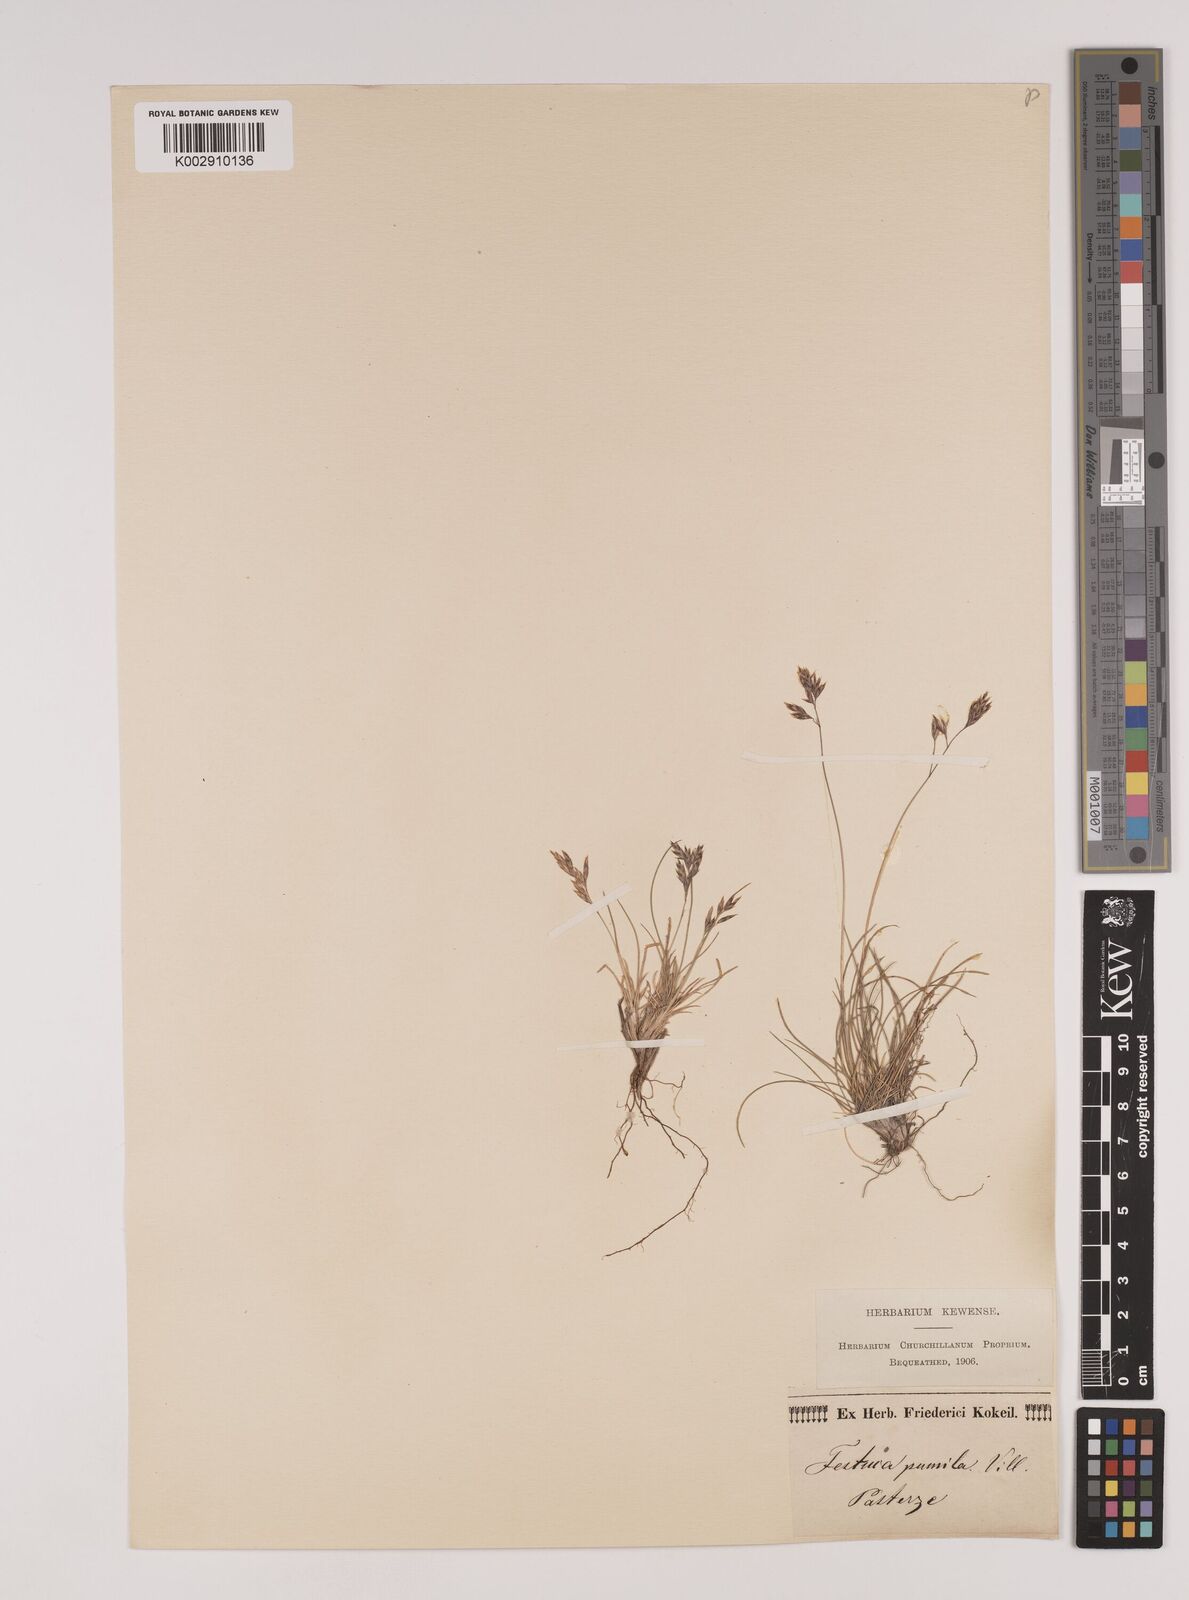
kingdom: Plantae
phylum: Tracheophyta
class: Liliopsida
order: Poales
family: Poaceae
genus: Festuca
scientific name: Festuca
